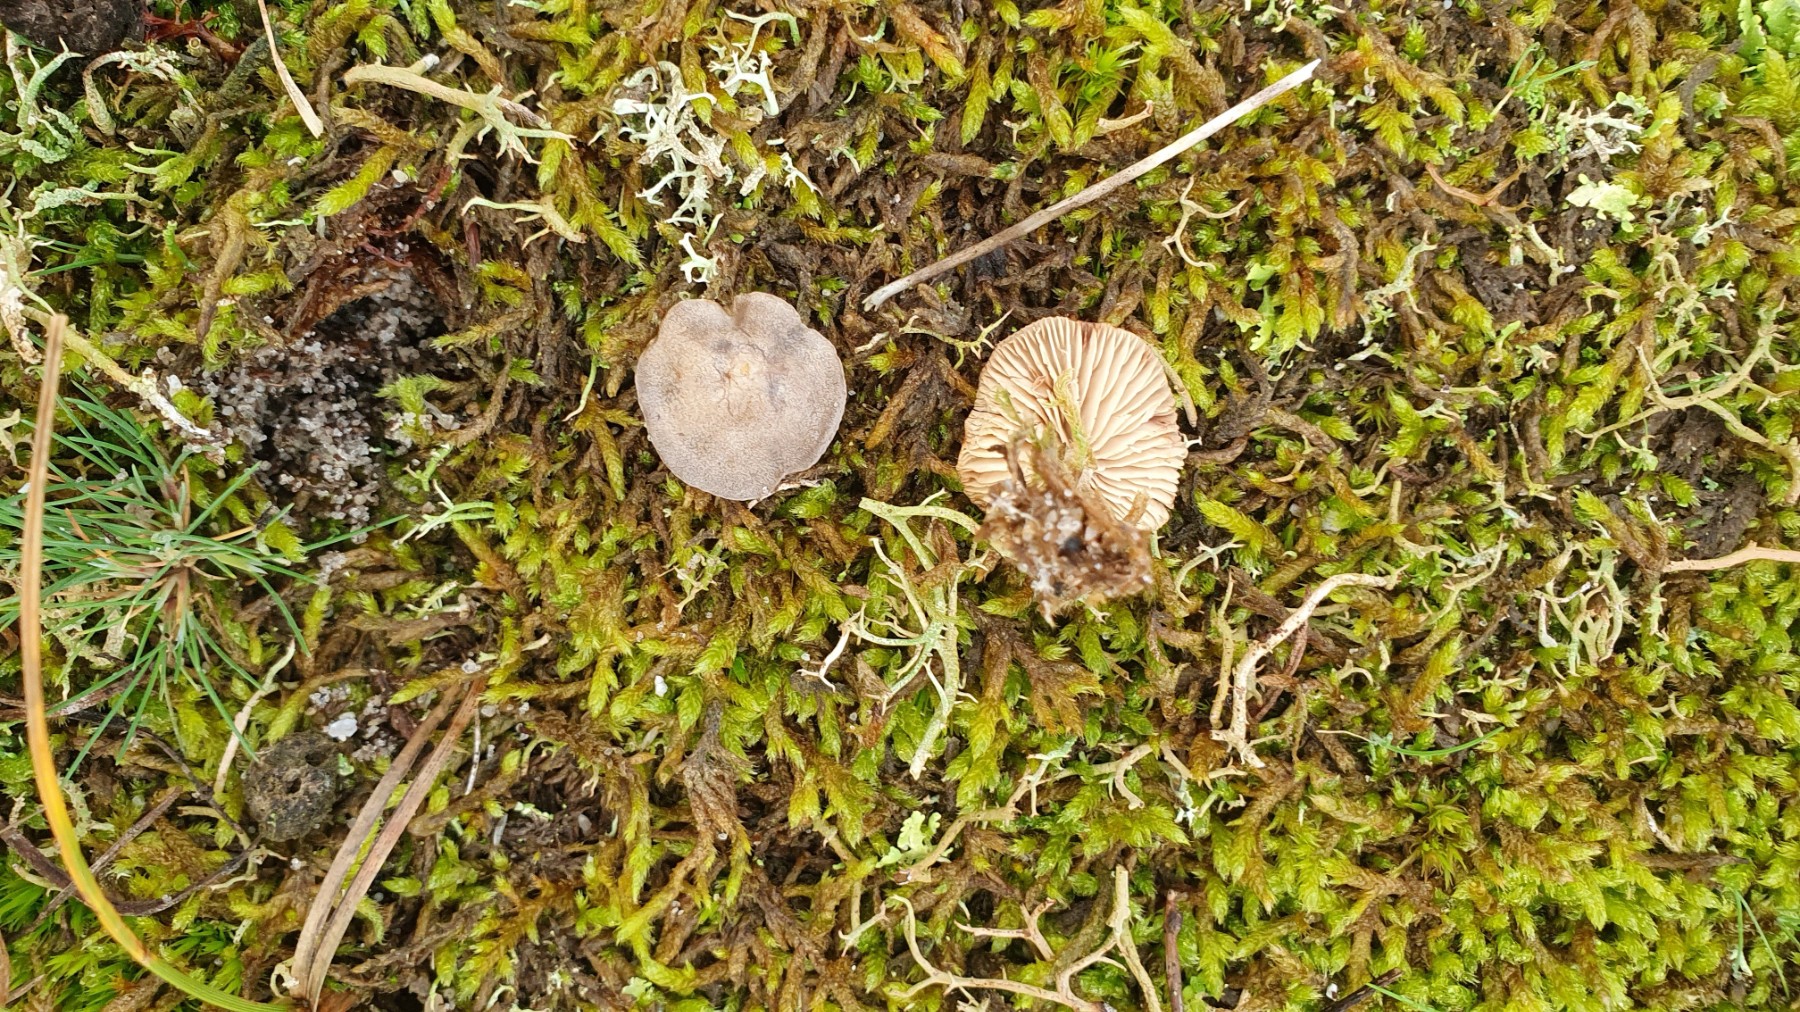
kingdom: Fungi
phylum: Basidiomycota
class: Agaricomycetes
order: Agaricales
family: Entolomataceae
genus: Rhodocybe
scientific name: Rhodocybe tugrulii
